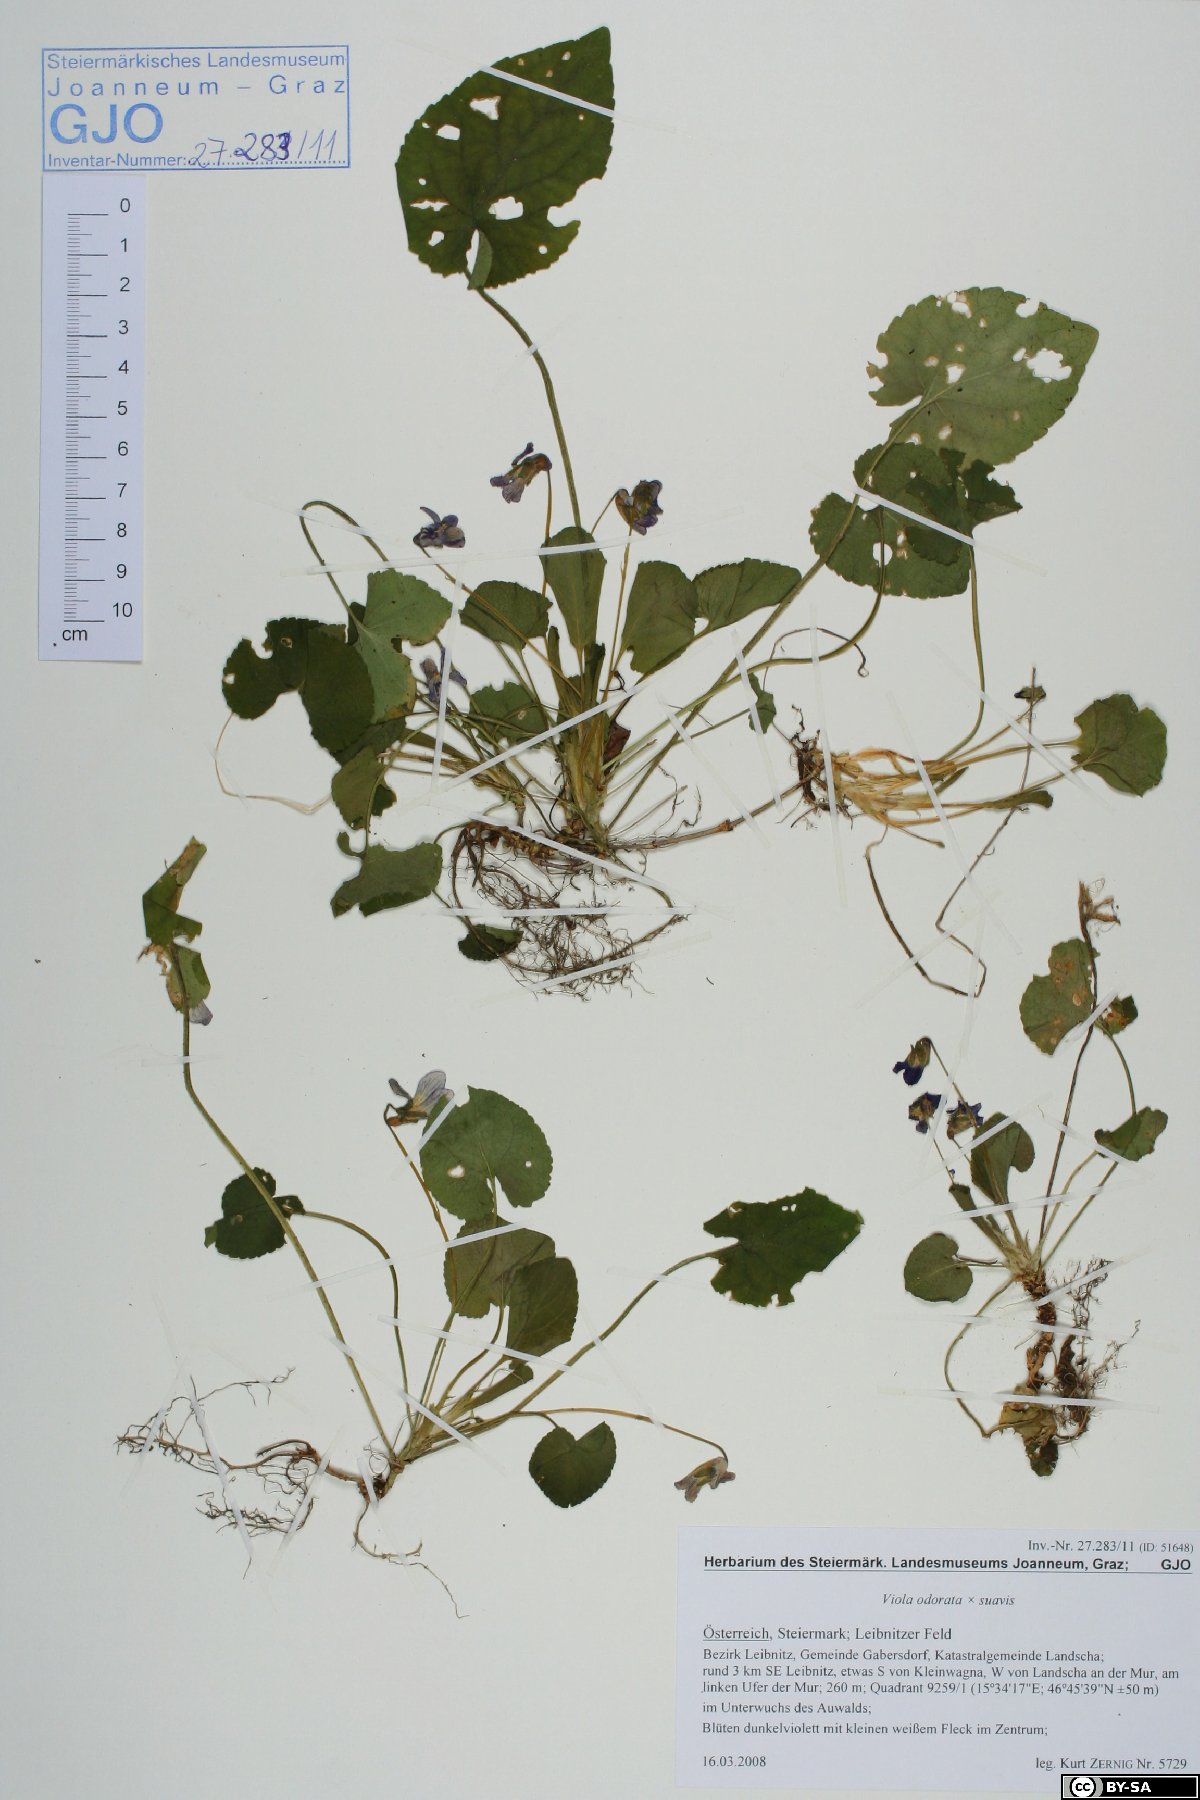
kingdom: Plantae
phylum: Tracheophyta
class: Magnoliopsida
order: Malpighiales
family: Violaceae
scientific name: Violaceae
